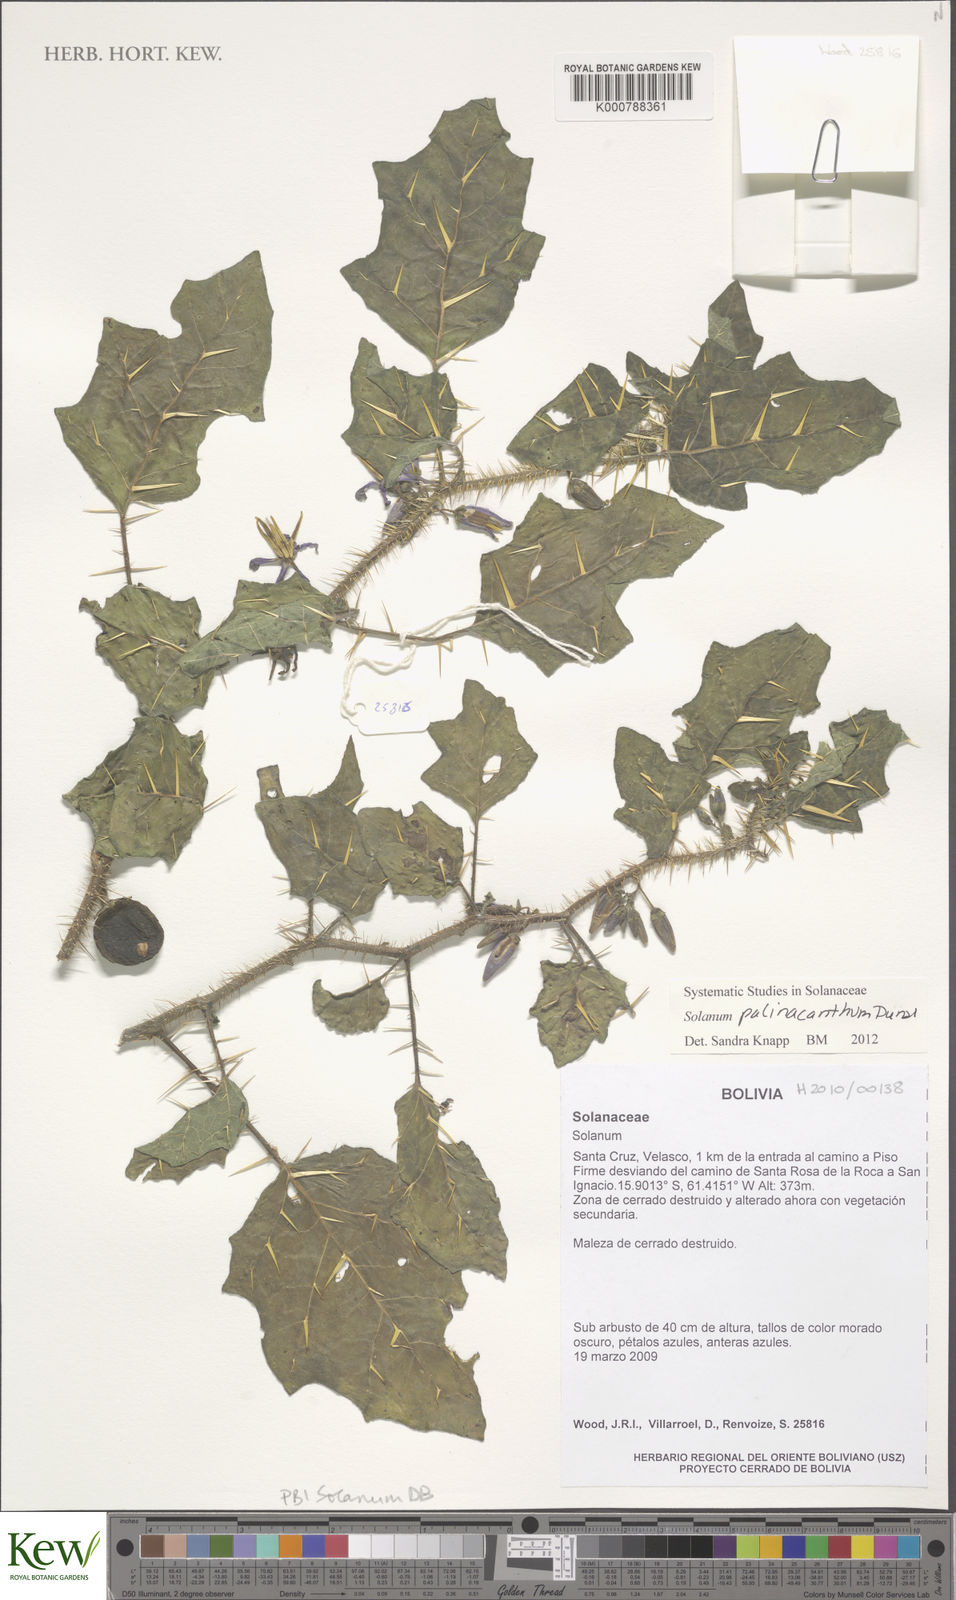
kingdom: Plantae
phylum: Tracheophyta
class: Magnoliopsida
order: Solanales
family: Solanaceae
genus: Solanum
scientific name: Solanum palinacanthum
